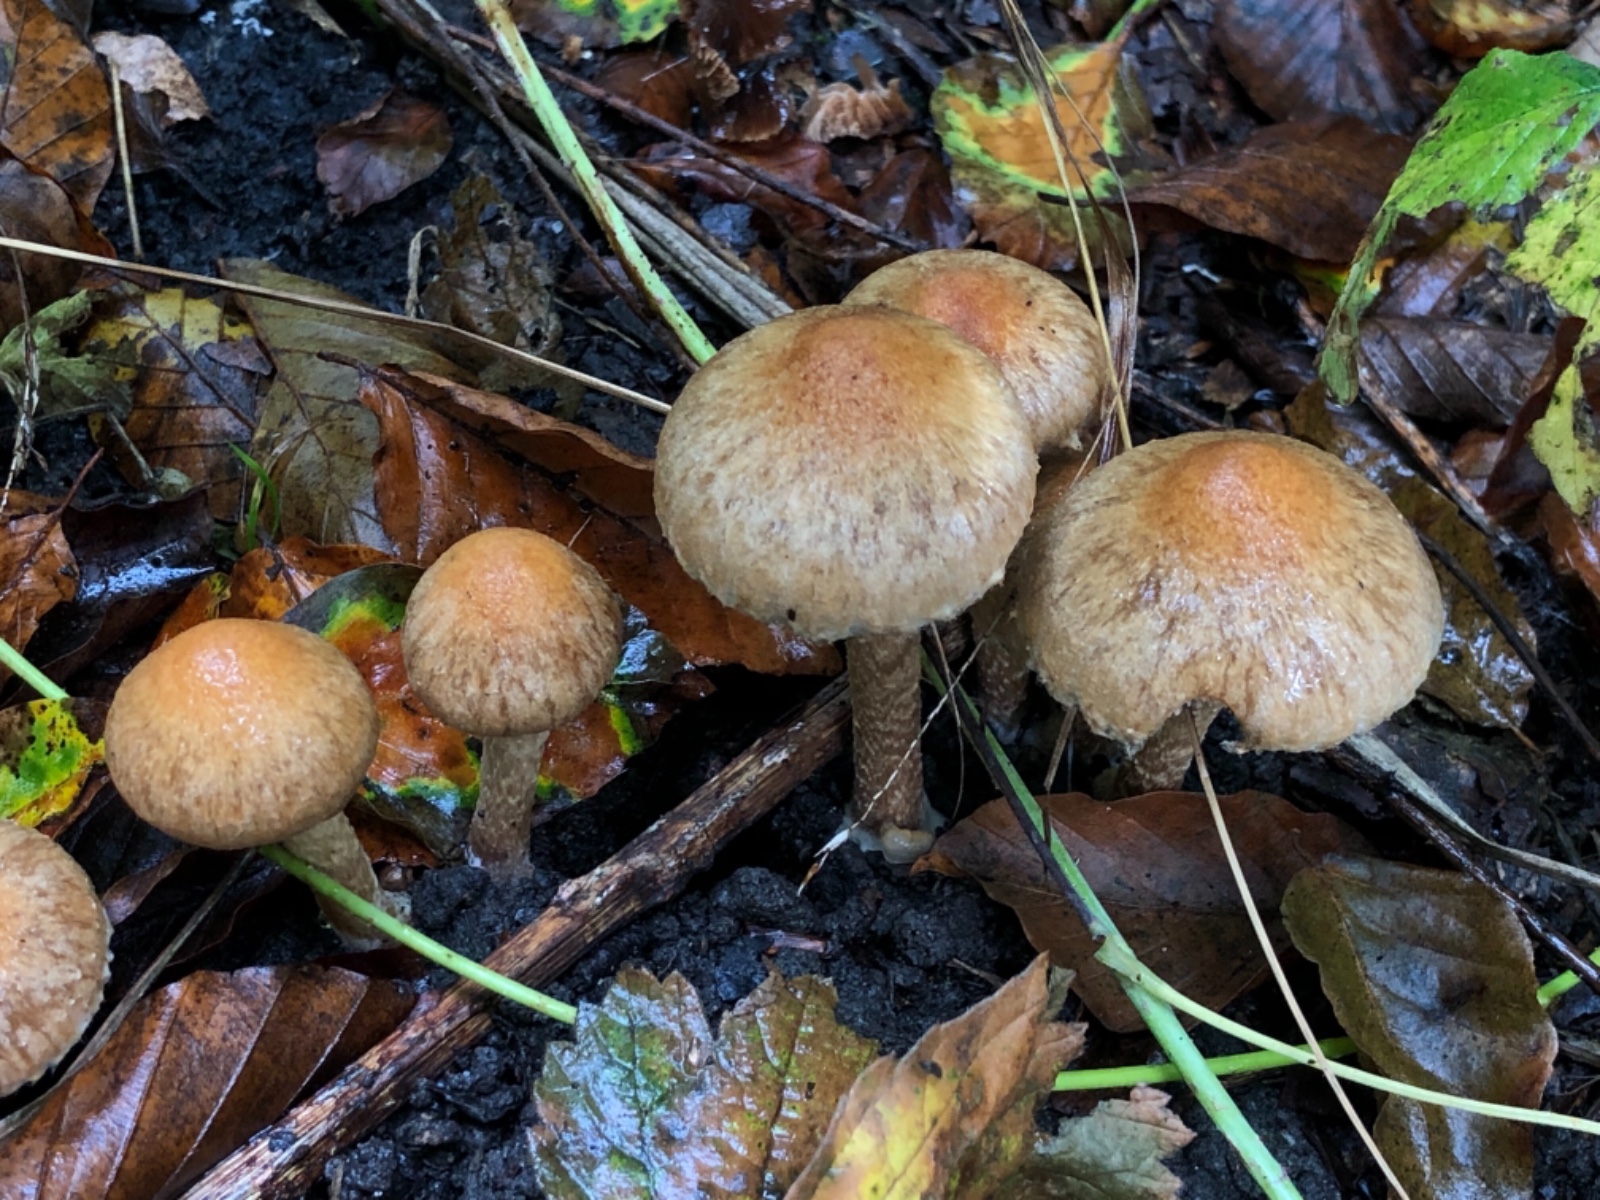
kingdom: Fungi
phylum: Basidiomycota
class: Agaricomycetes
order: Agaricales
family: Psathyrellaceae
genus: Lacrymaria
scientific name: Lacrymaria lacrymabunda
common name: grædende mørkhat
